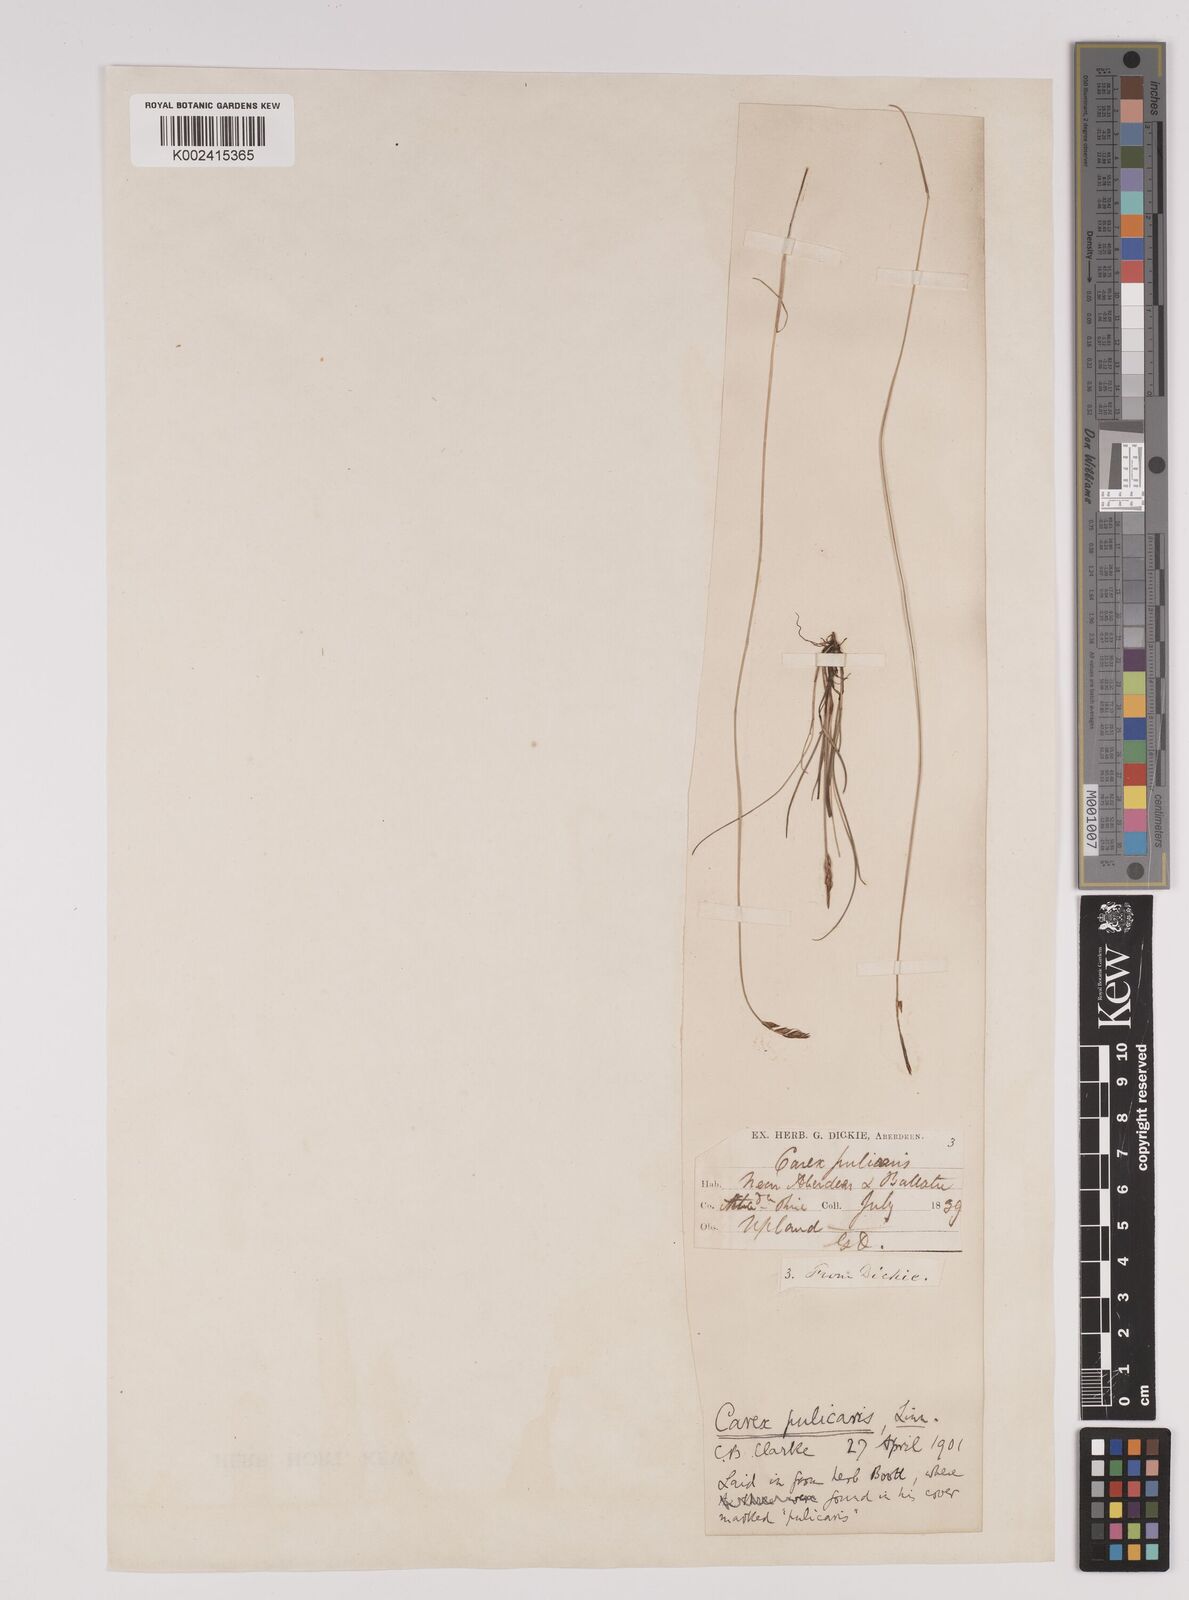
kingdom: Plantae
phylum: Tracheophyta
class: Liliopsida
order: Poales
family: Cyperaceae
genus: Carex
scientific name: Carex pulicaris
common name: Flea sedge
